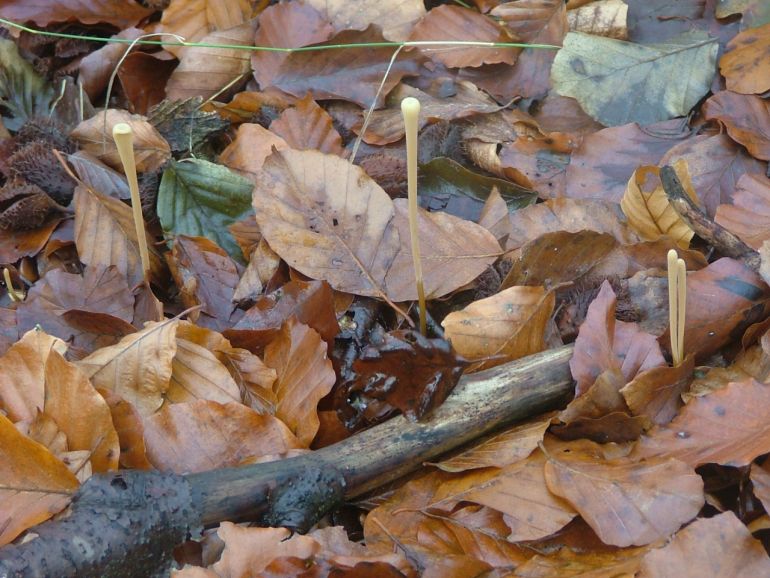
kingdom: Fungi
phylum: Basidiomycota
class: Agaricomycetes
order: Agaricales
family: Typhulaceae
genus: Typhula
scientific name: Typhula fistulosa
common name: pibet rørkølle
